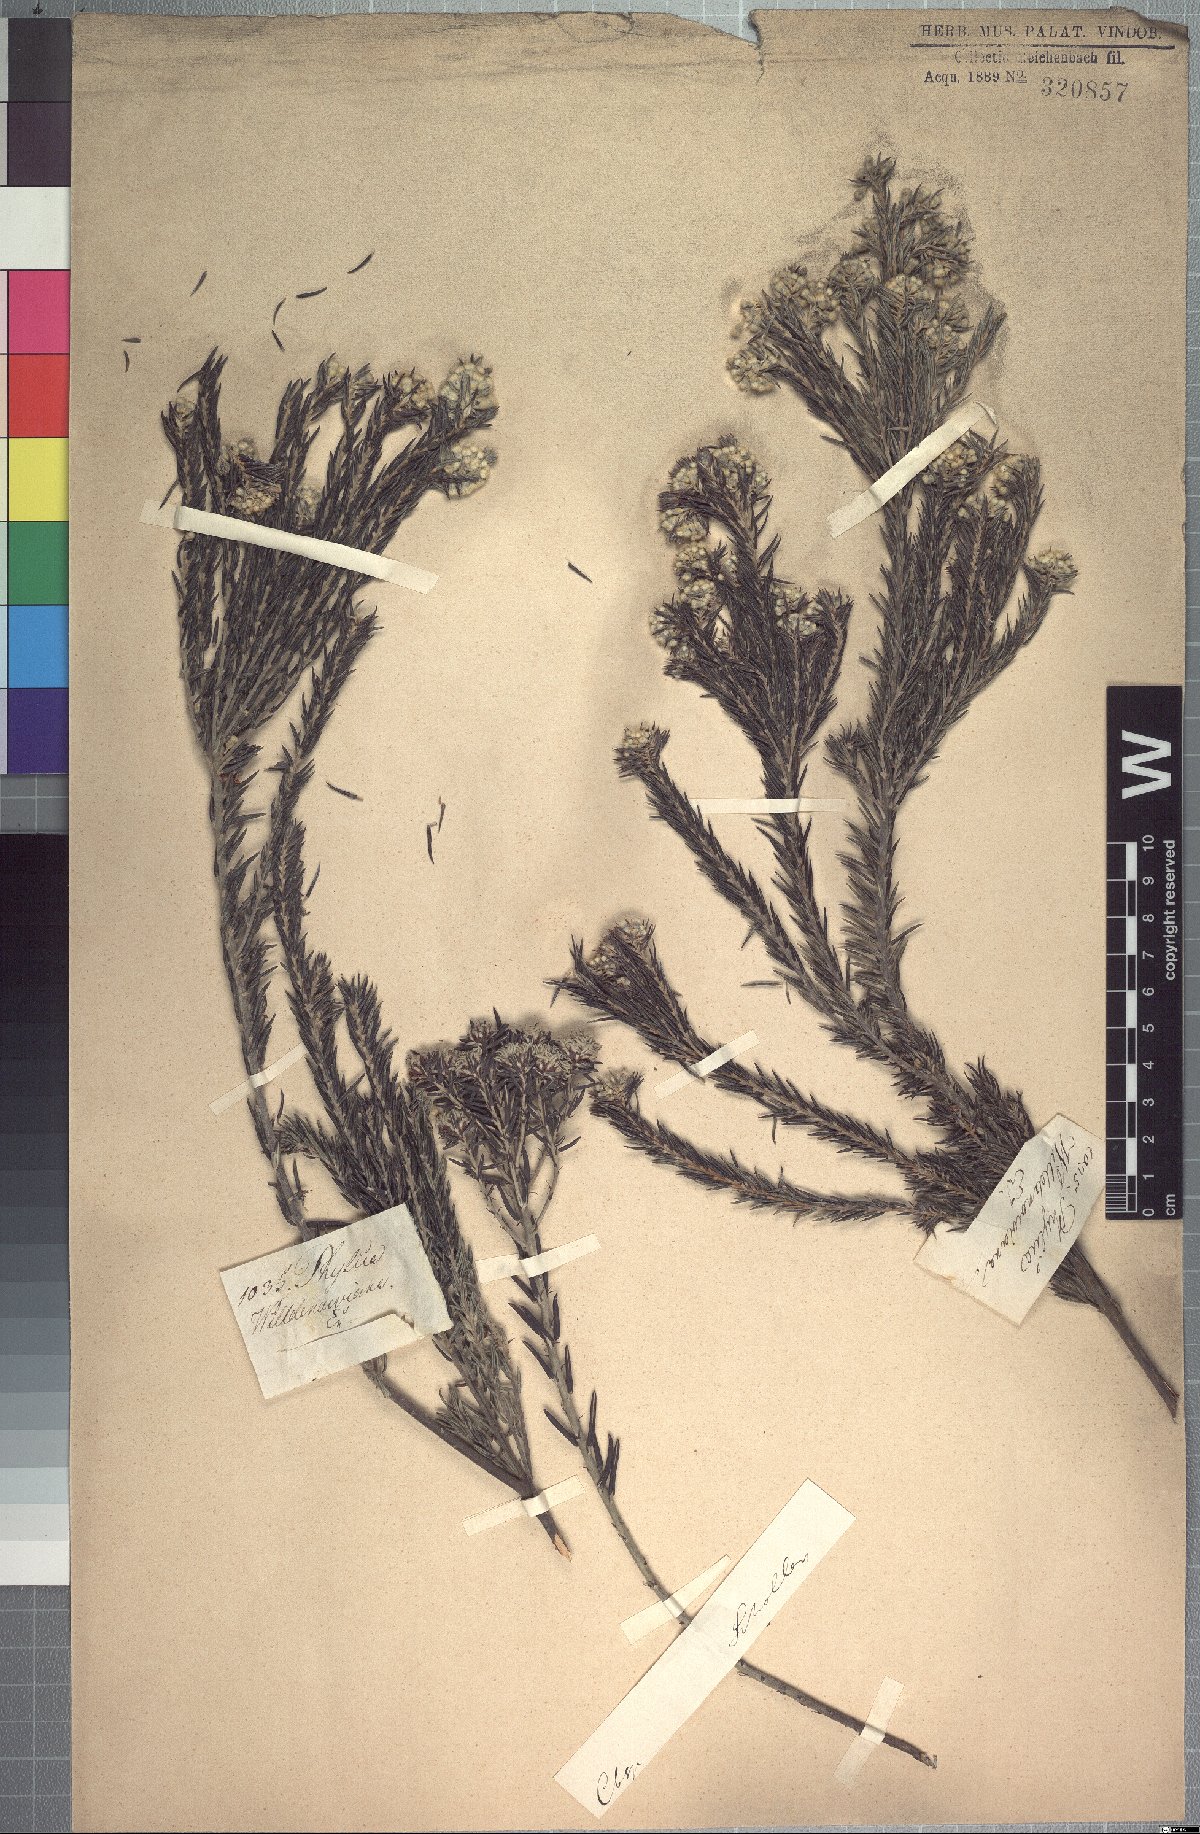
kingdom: Plantae
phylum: Tracheophyta
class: Magnoliopsida
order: Rosales
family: Rhamnaceae
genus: Phylica
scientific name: Phylica willdenowiana
